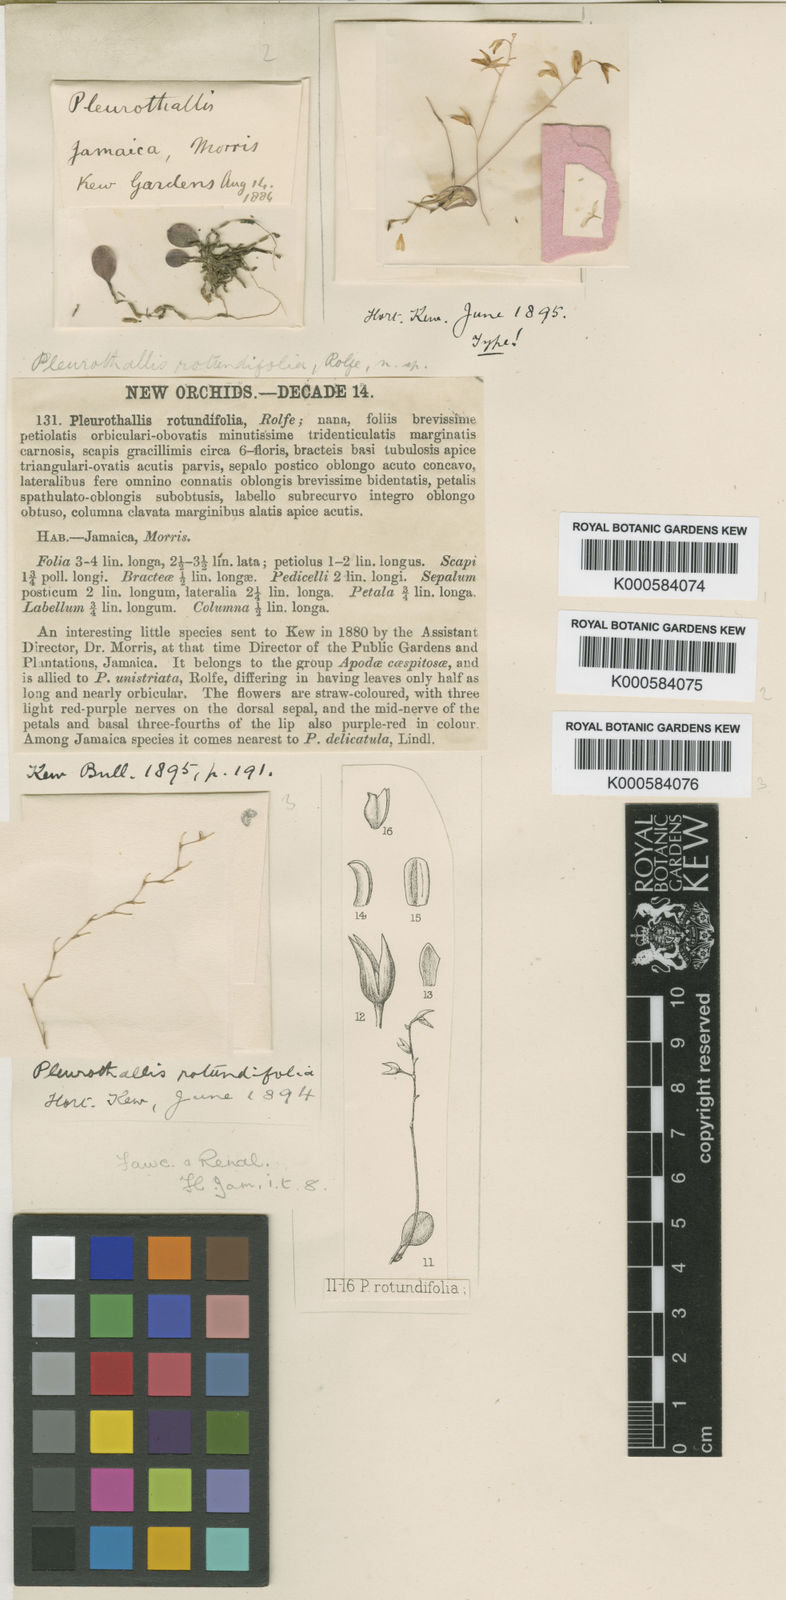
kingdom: Plantae
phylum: Tracheophyta
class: Liliopsida
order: Asparagales
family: Orchidaceae
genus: Specklinia
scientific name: Specklinia microphylla
